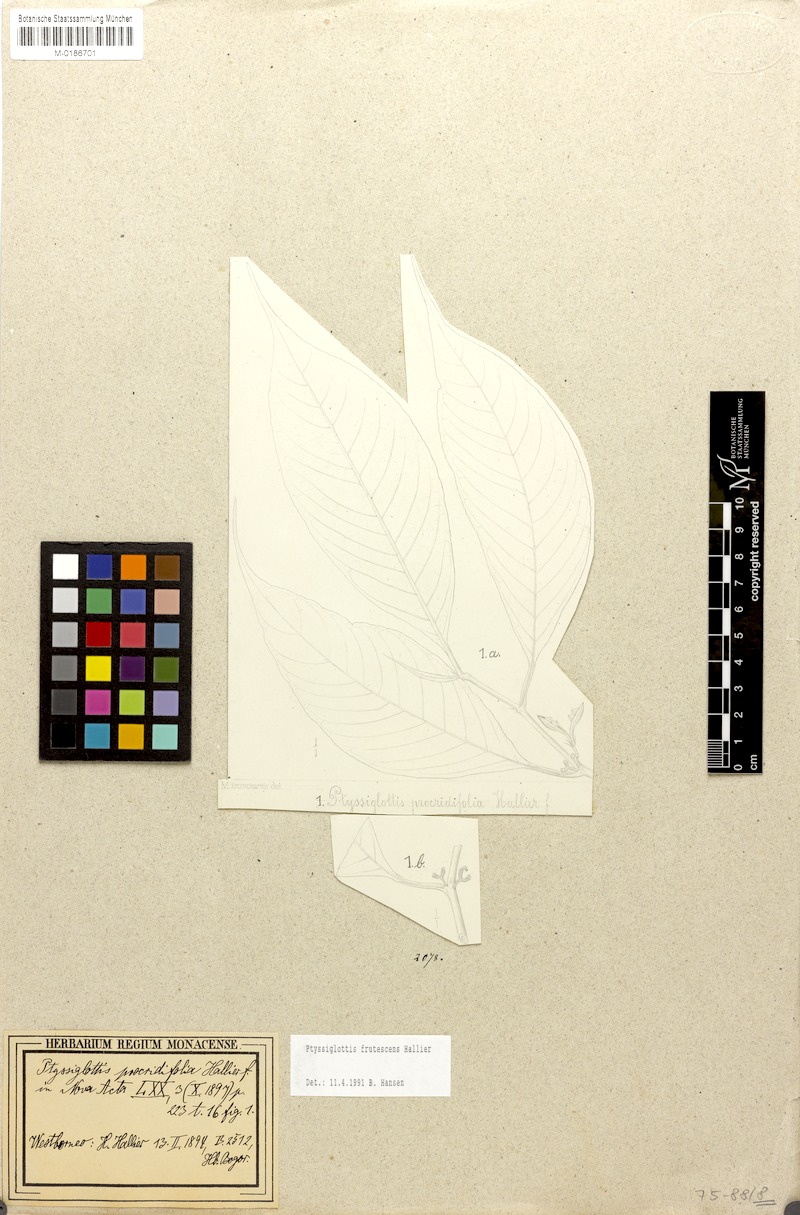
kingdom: Plantae
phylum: Tracheophyta
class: Magnoliopsida
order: Lamiales
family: Acanthaceae
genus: Ptyssiglottis
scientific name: Ptyssiglottis lanceolata
